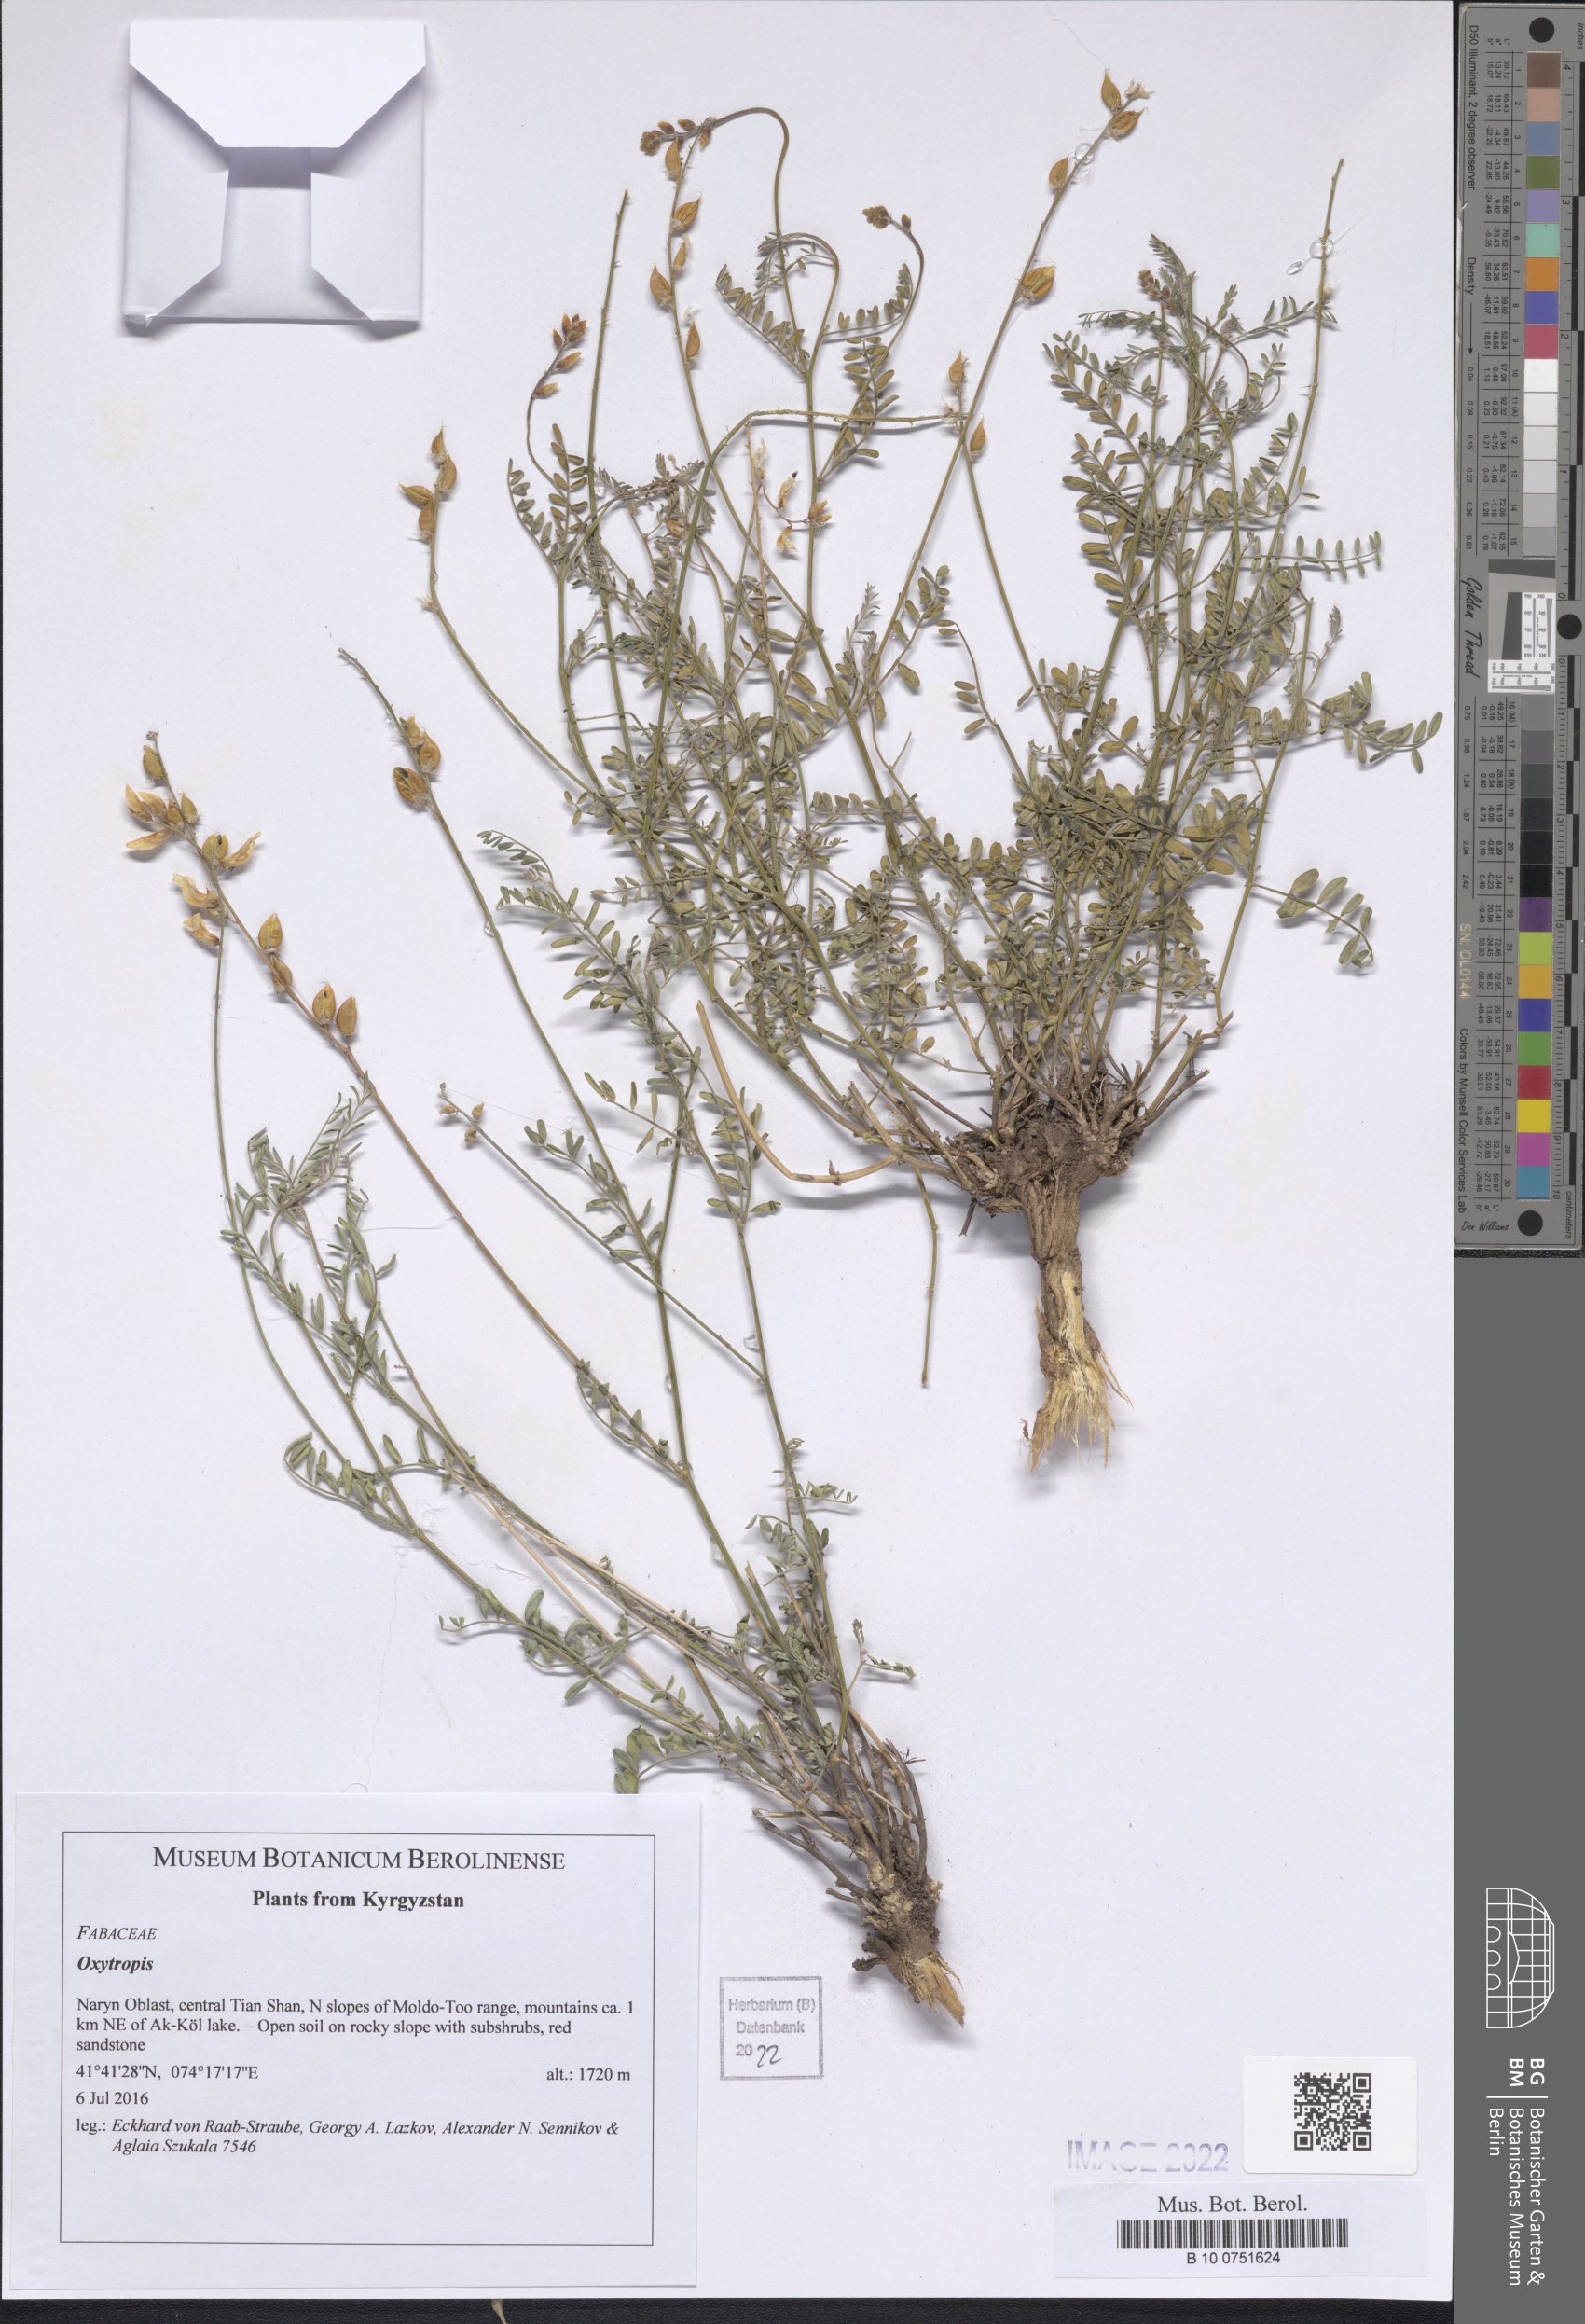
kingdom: Plantae
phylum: Tracheophyta
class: Magnoliopsida
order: Fabales
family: Fabaceae
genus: Oxytropis
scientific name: Oxytropis
